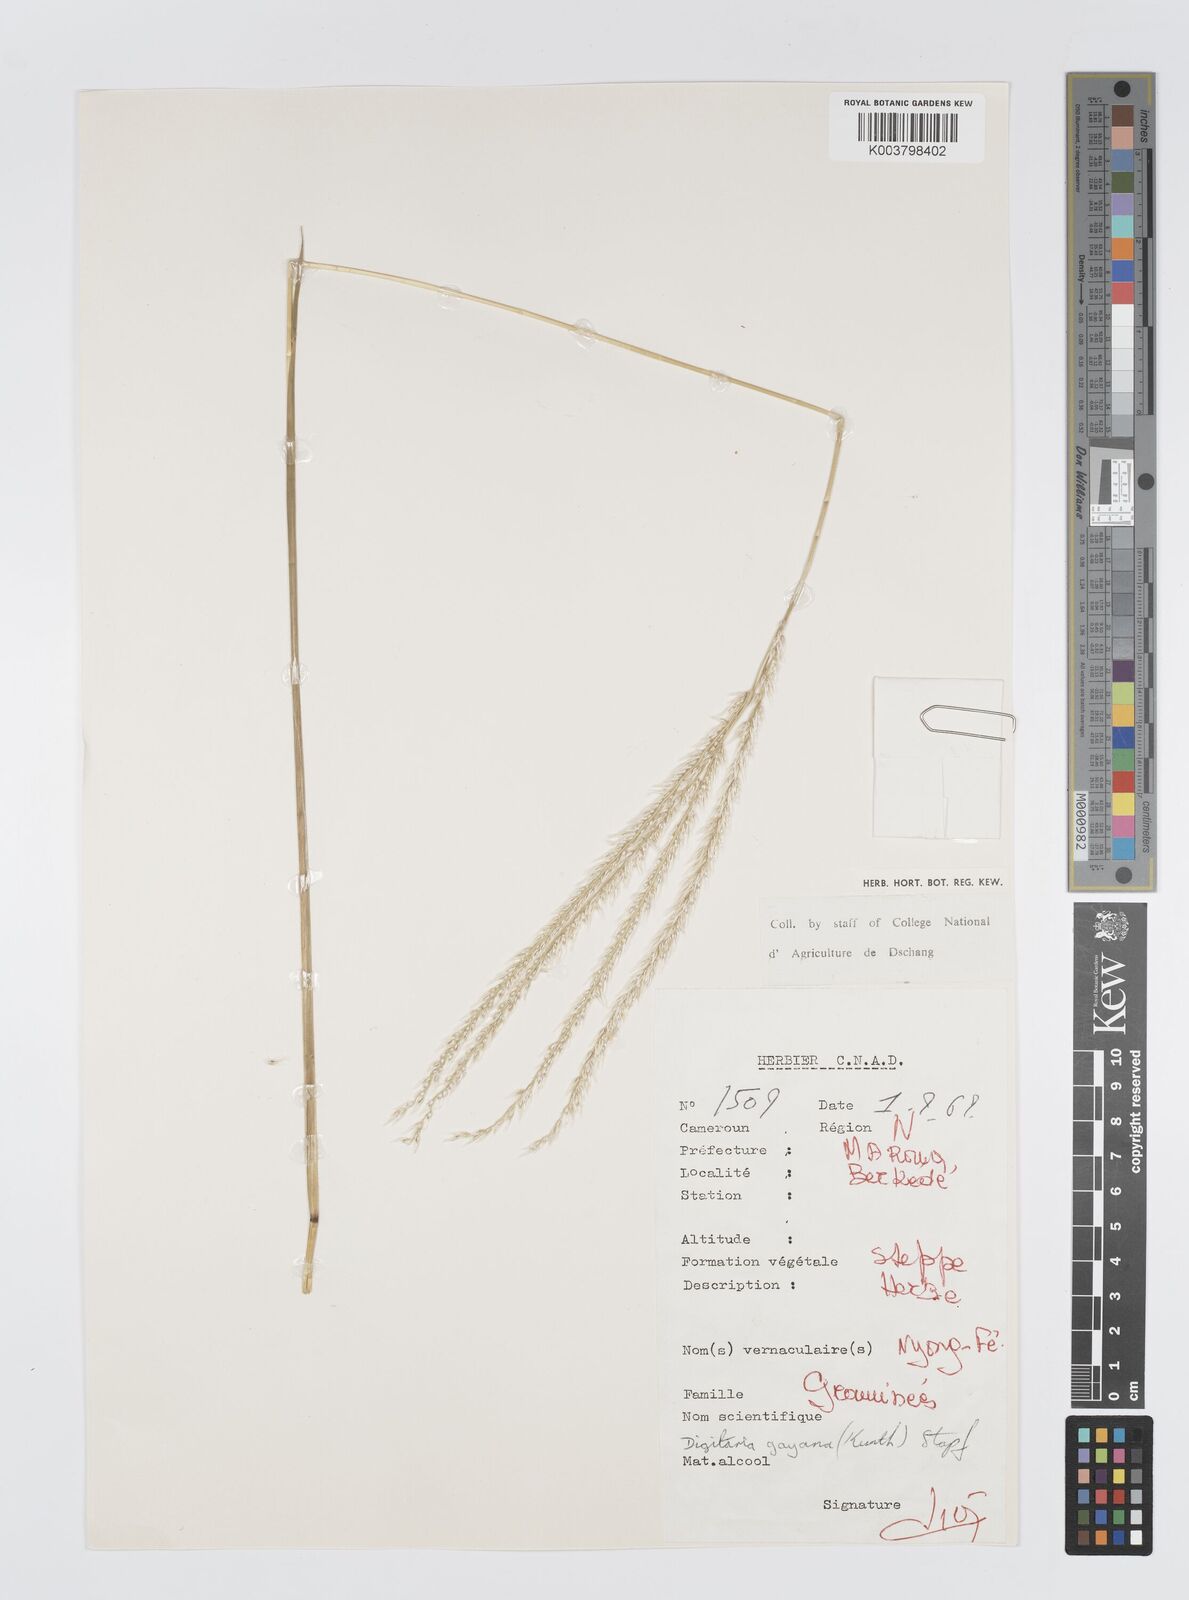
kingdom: Plantae
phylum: Tracheophyta
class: Liliopsida
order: Poales
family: Poaceae
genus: Digitaria
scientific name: Digitaria gayana
